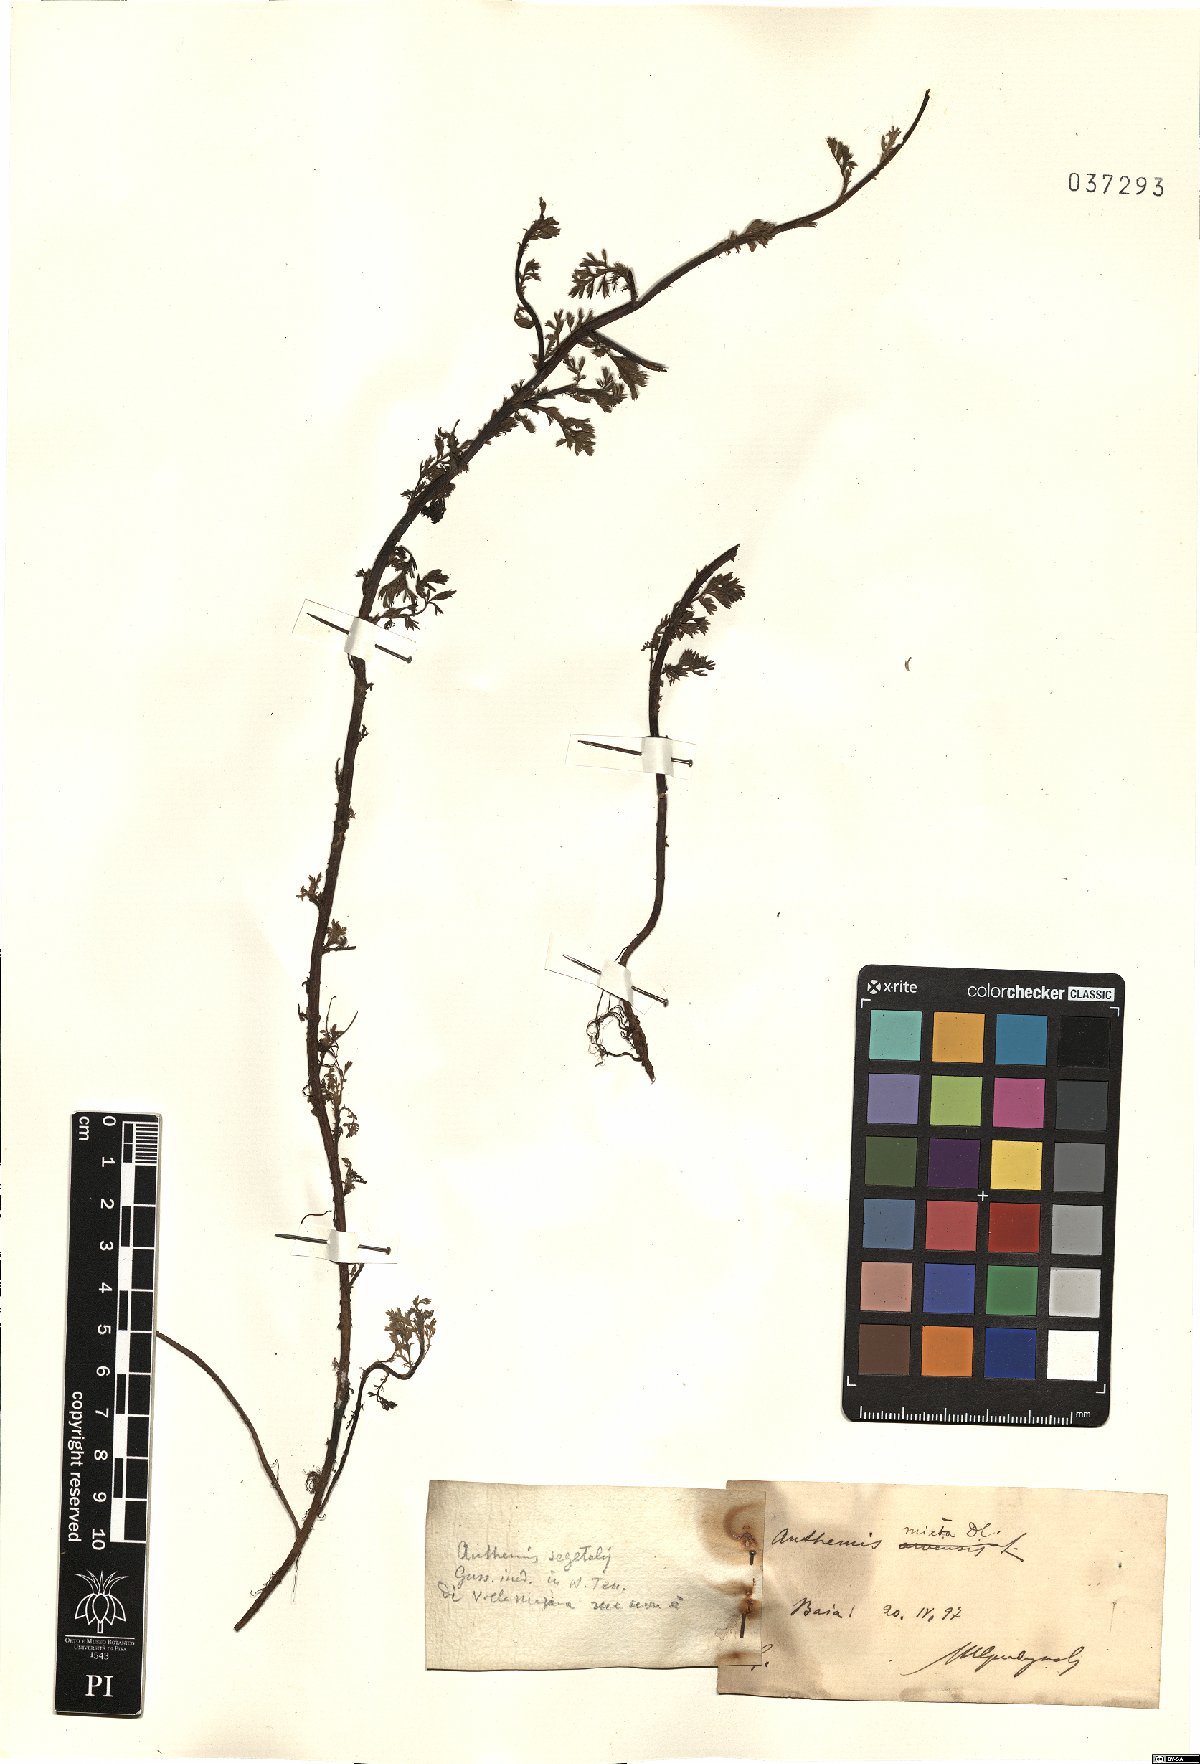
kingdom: Plantae
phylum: Tracheophyta
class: Magnoliopsida
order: Asterales
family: Asteraceae
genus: Cladanthus
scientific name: Cladanthus mixtus
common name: Weedy dogfennel
